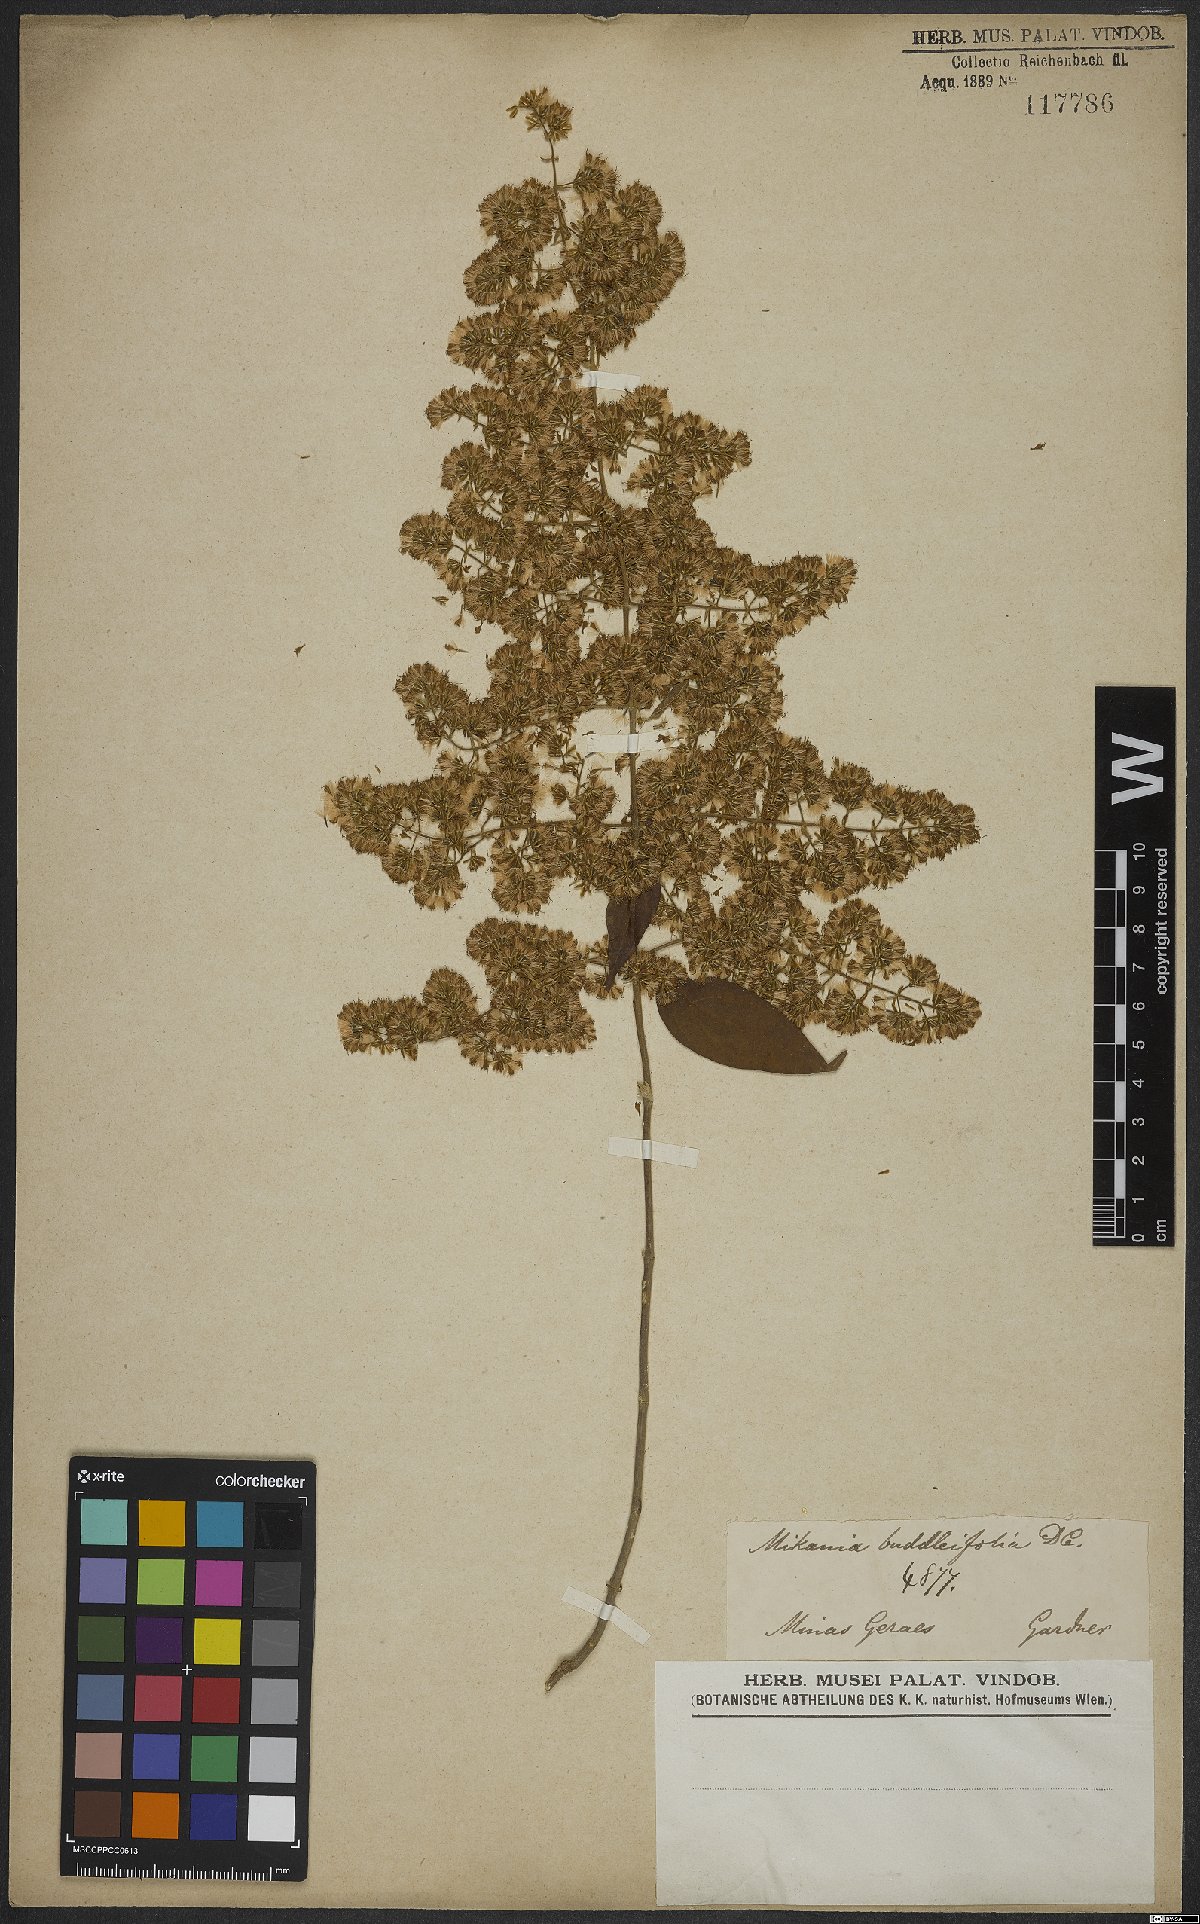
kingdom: Plantae
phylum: Tracheophyta
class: Magnoliopsida
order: Asterales
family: Asteraceae
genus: Mikania
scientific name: Mikania buddlejifolia
